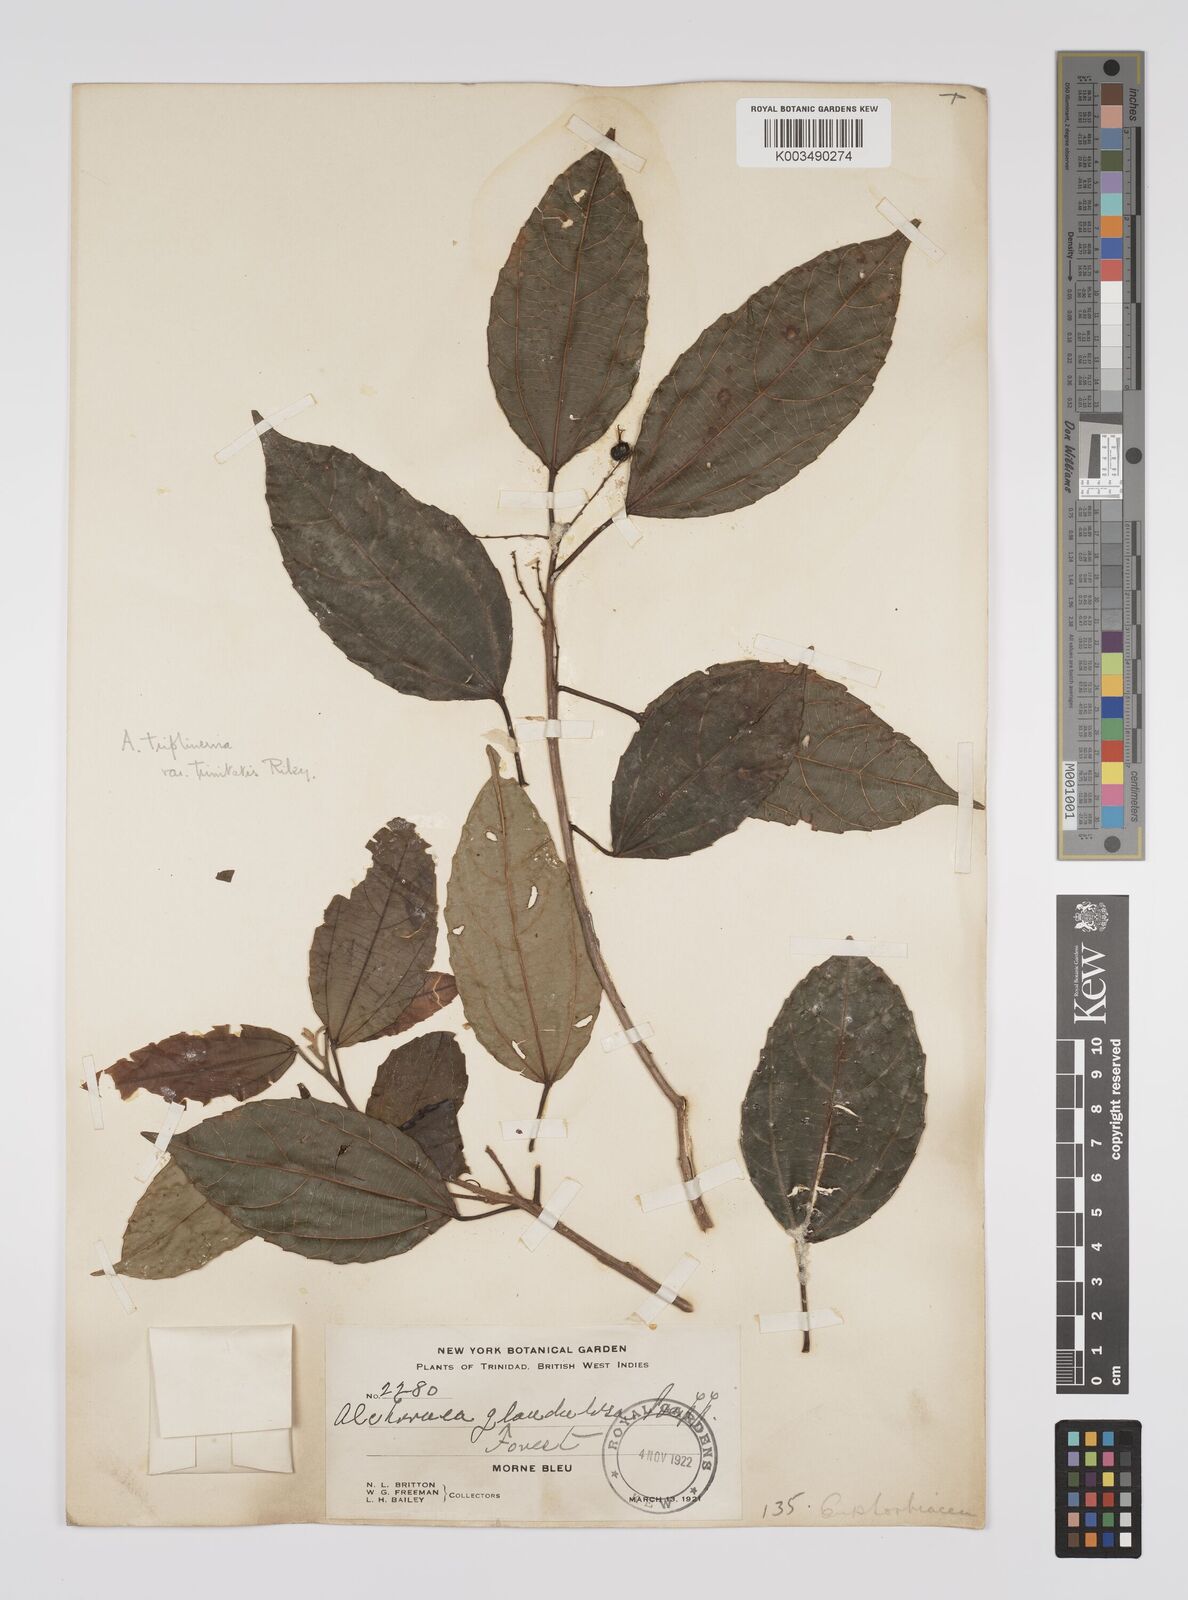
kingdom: Plantae
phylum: Tracheophyta
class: Magnoliopsida
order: Malpighiales
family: Euphorbiaceae
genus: Alchornea
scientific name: Alchornea triplinervia
